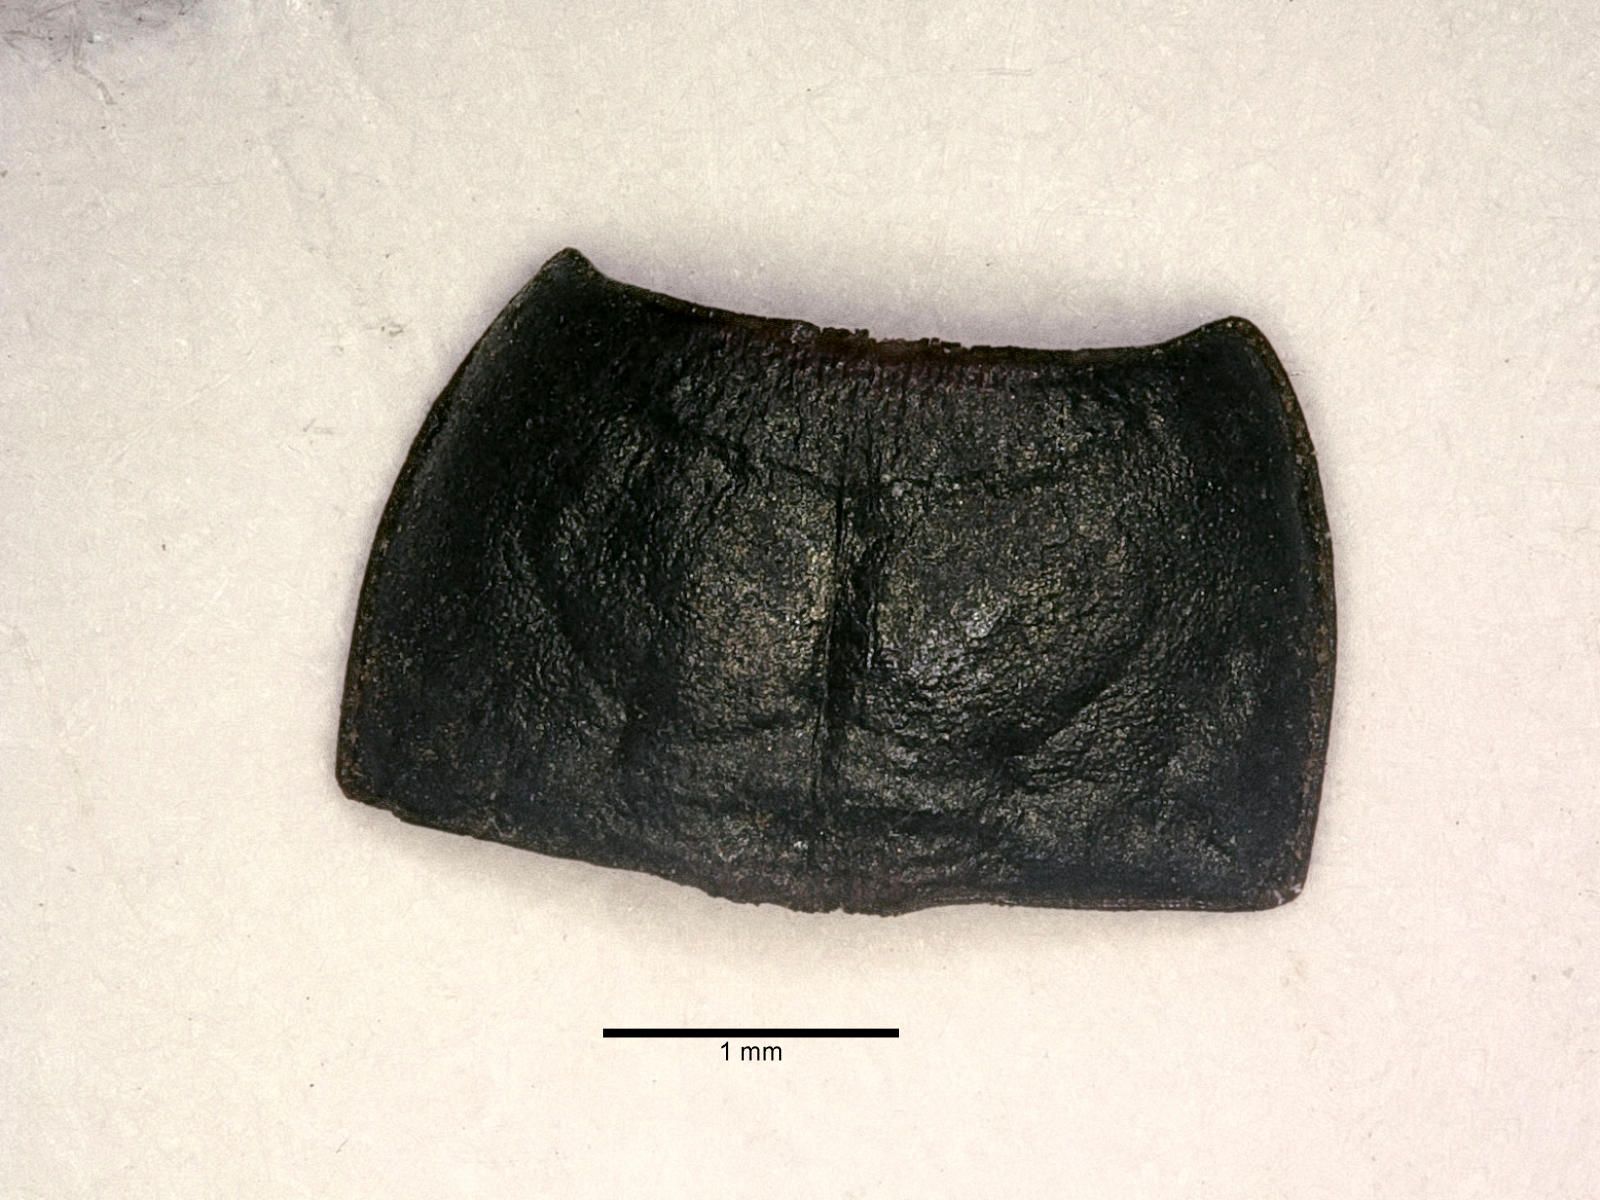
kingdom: Animalia
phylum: Arthropoda
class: Insecta
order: Coleoptera
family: Carabidae
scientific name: Carabidae
